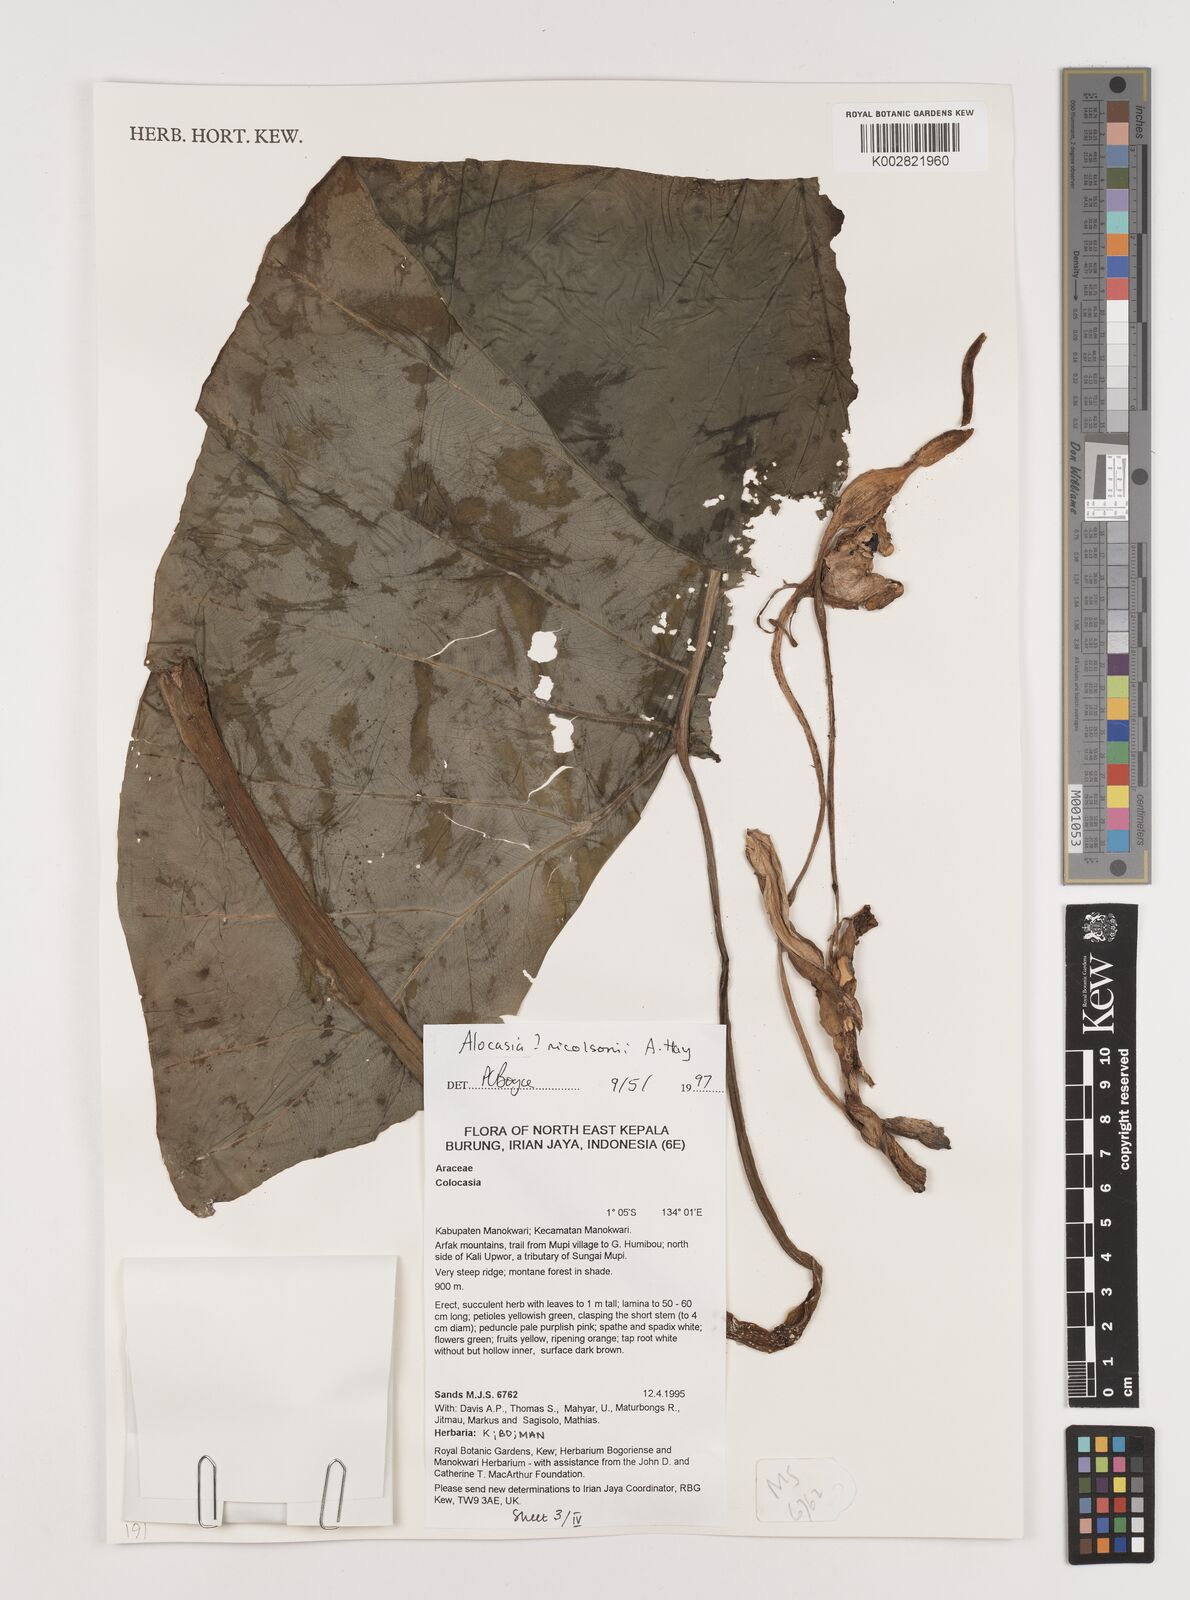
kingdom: Plantae
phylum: Tracheophyta
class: Liliopsida
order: Alismatales
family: Araceae
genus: Alocasia
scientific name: Alocasia nicolsonii
